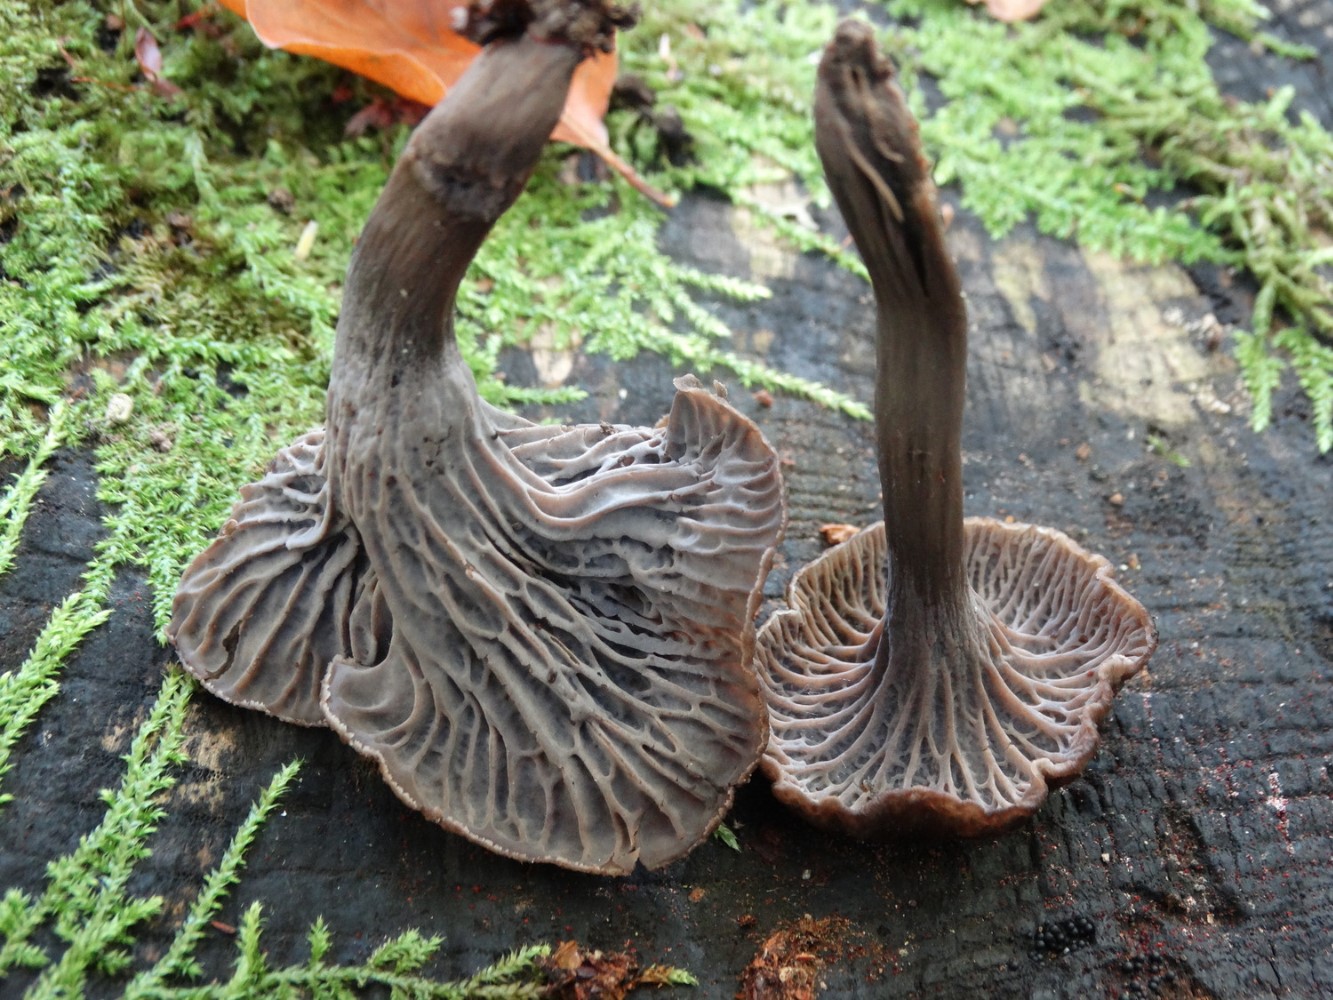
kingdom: Fungi
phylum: Basidiomycota
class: Agaricomycetes
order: Cantharellales
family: Hydnaceae
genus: Cantharellus
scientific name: Cantharellus cinereus
